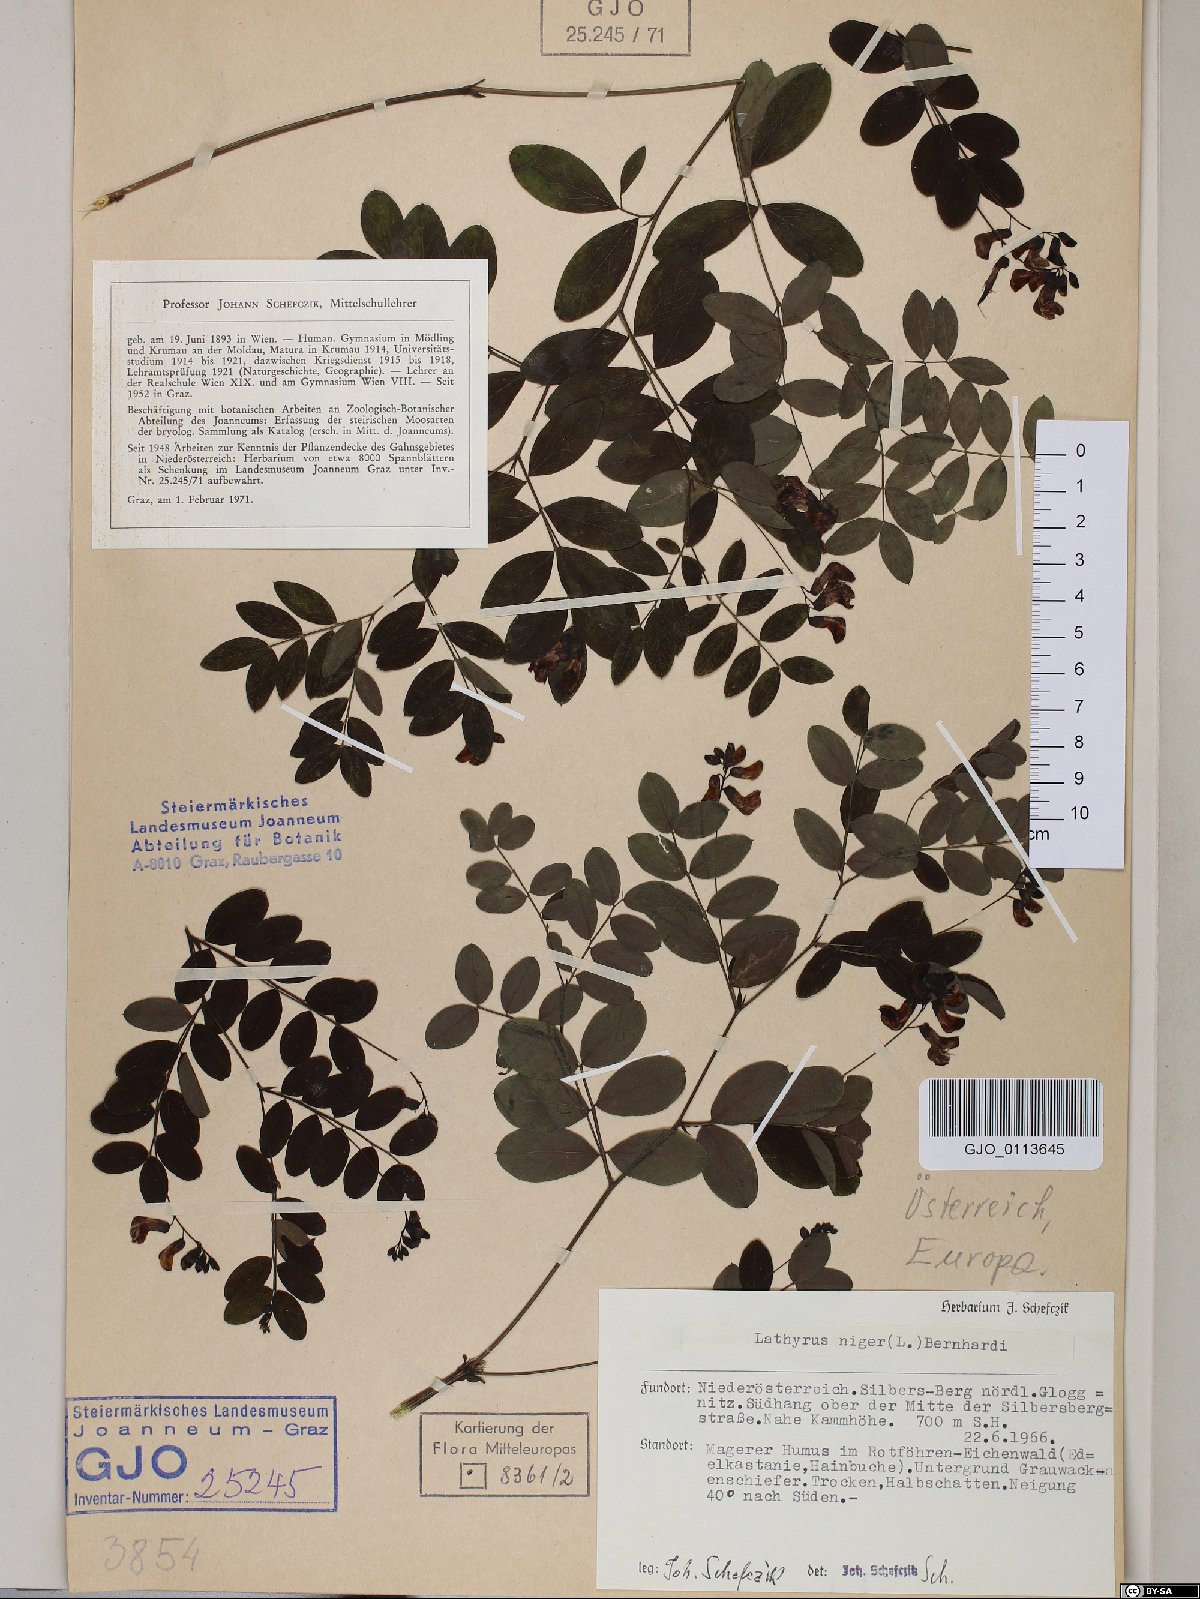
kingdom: Plantae
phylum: Tracheophyta
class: Magnoliopsida
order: Fabales
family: Fabaceae
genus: Lathyrus
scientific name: Lathyrus niger
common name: Black pea
